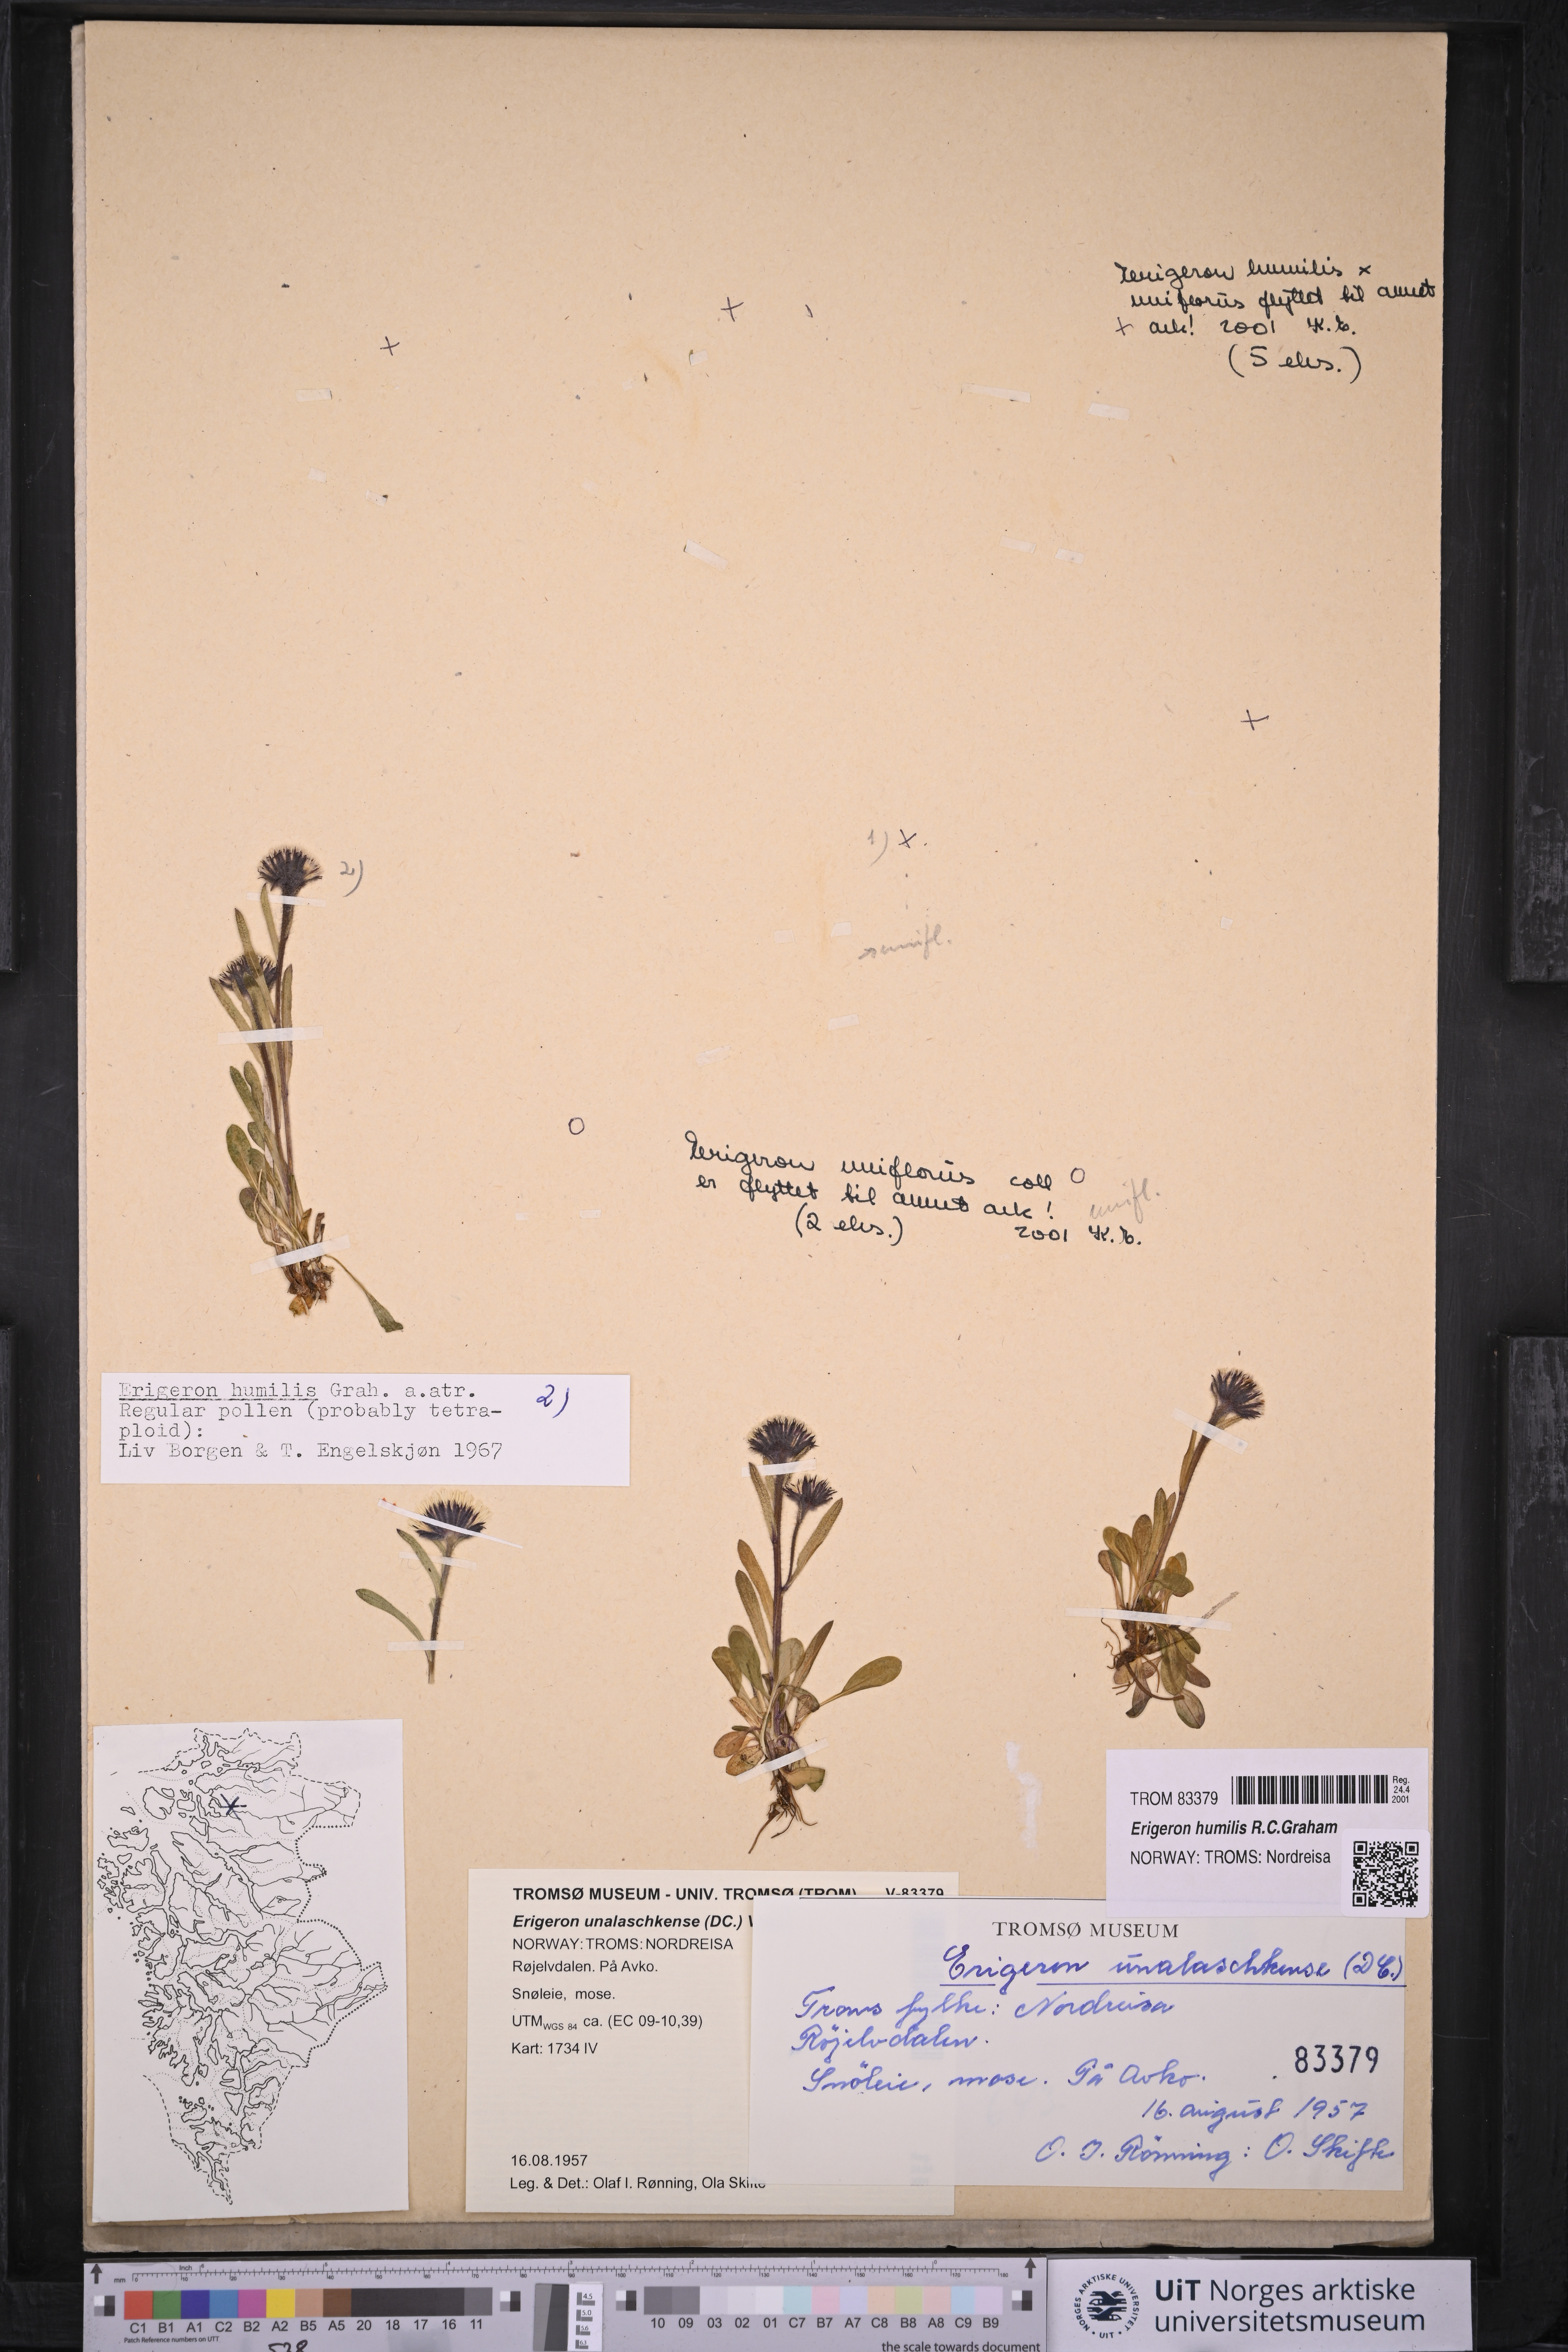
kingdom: Plantae
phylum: Tracheophyta
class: Magnoliopsida
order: Asterales
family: Asteraceae
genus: Erigeron
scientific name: Erigeron humilis
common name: Arctic-alpine fleabane
